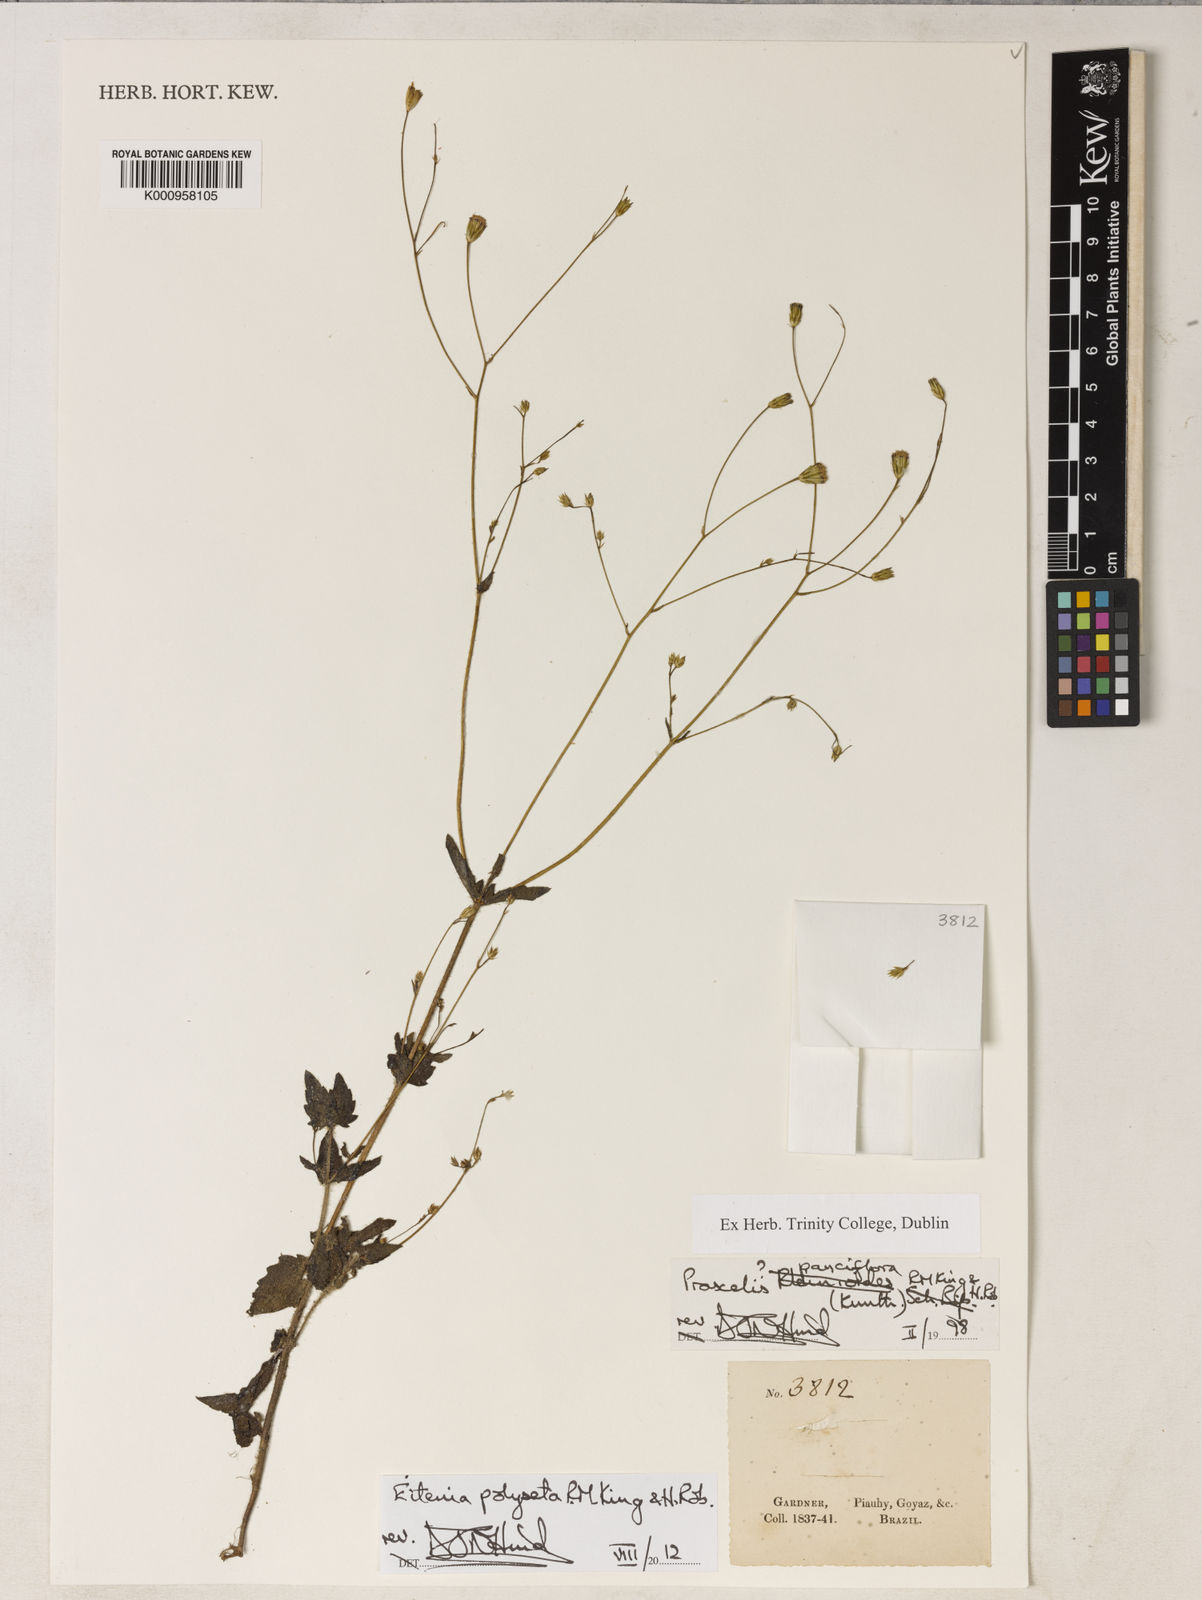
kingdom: Plantae
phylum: Tracheophyta
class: Magnoliopsida
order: Asterales
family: Asteraceae
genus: Eitenia
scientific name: Eitenia polyseta
